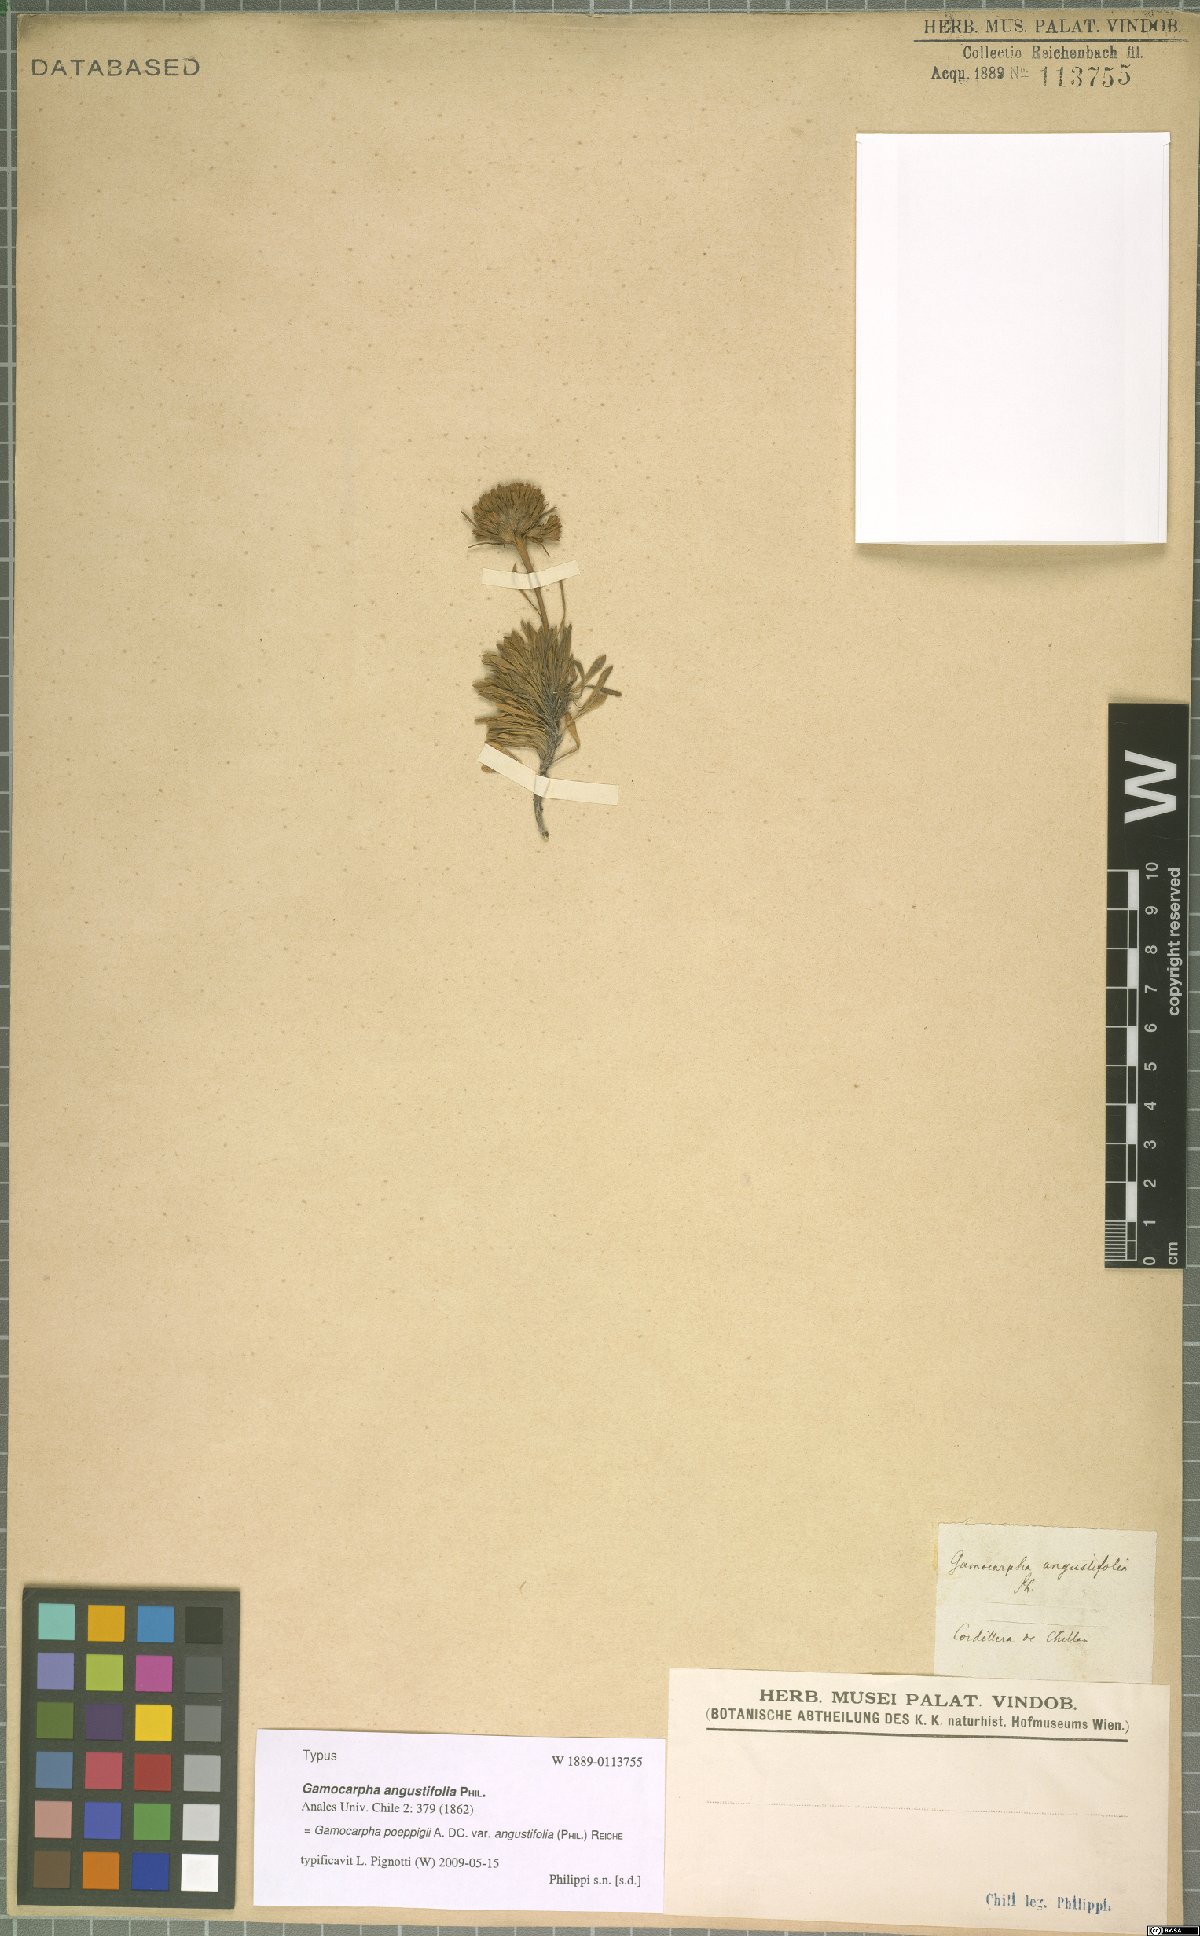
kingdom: Plantae
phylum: Tracheophyta
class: Magnoliopsida
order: Asterales
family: Calyceraceae
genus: Moschopsis
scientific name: Moschopsis angustifolia
